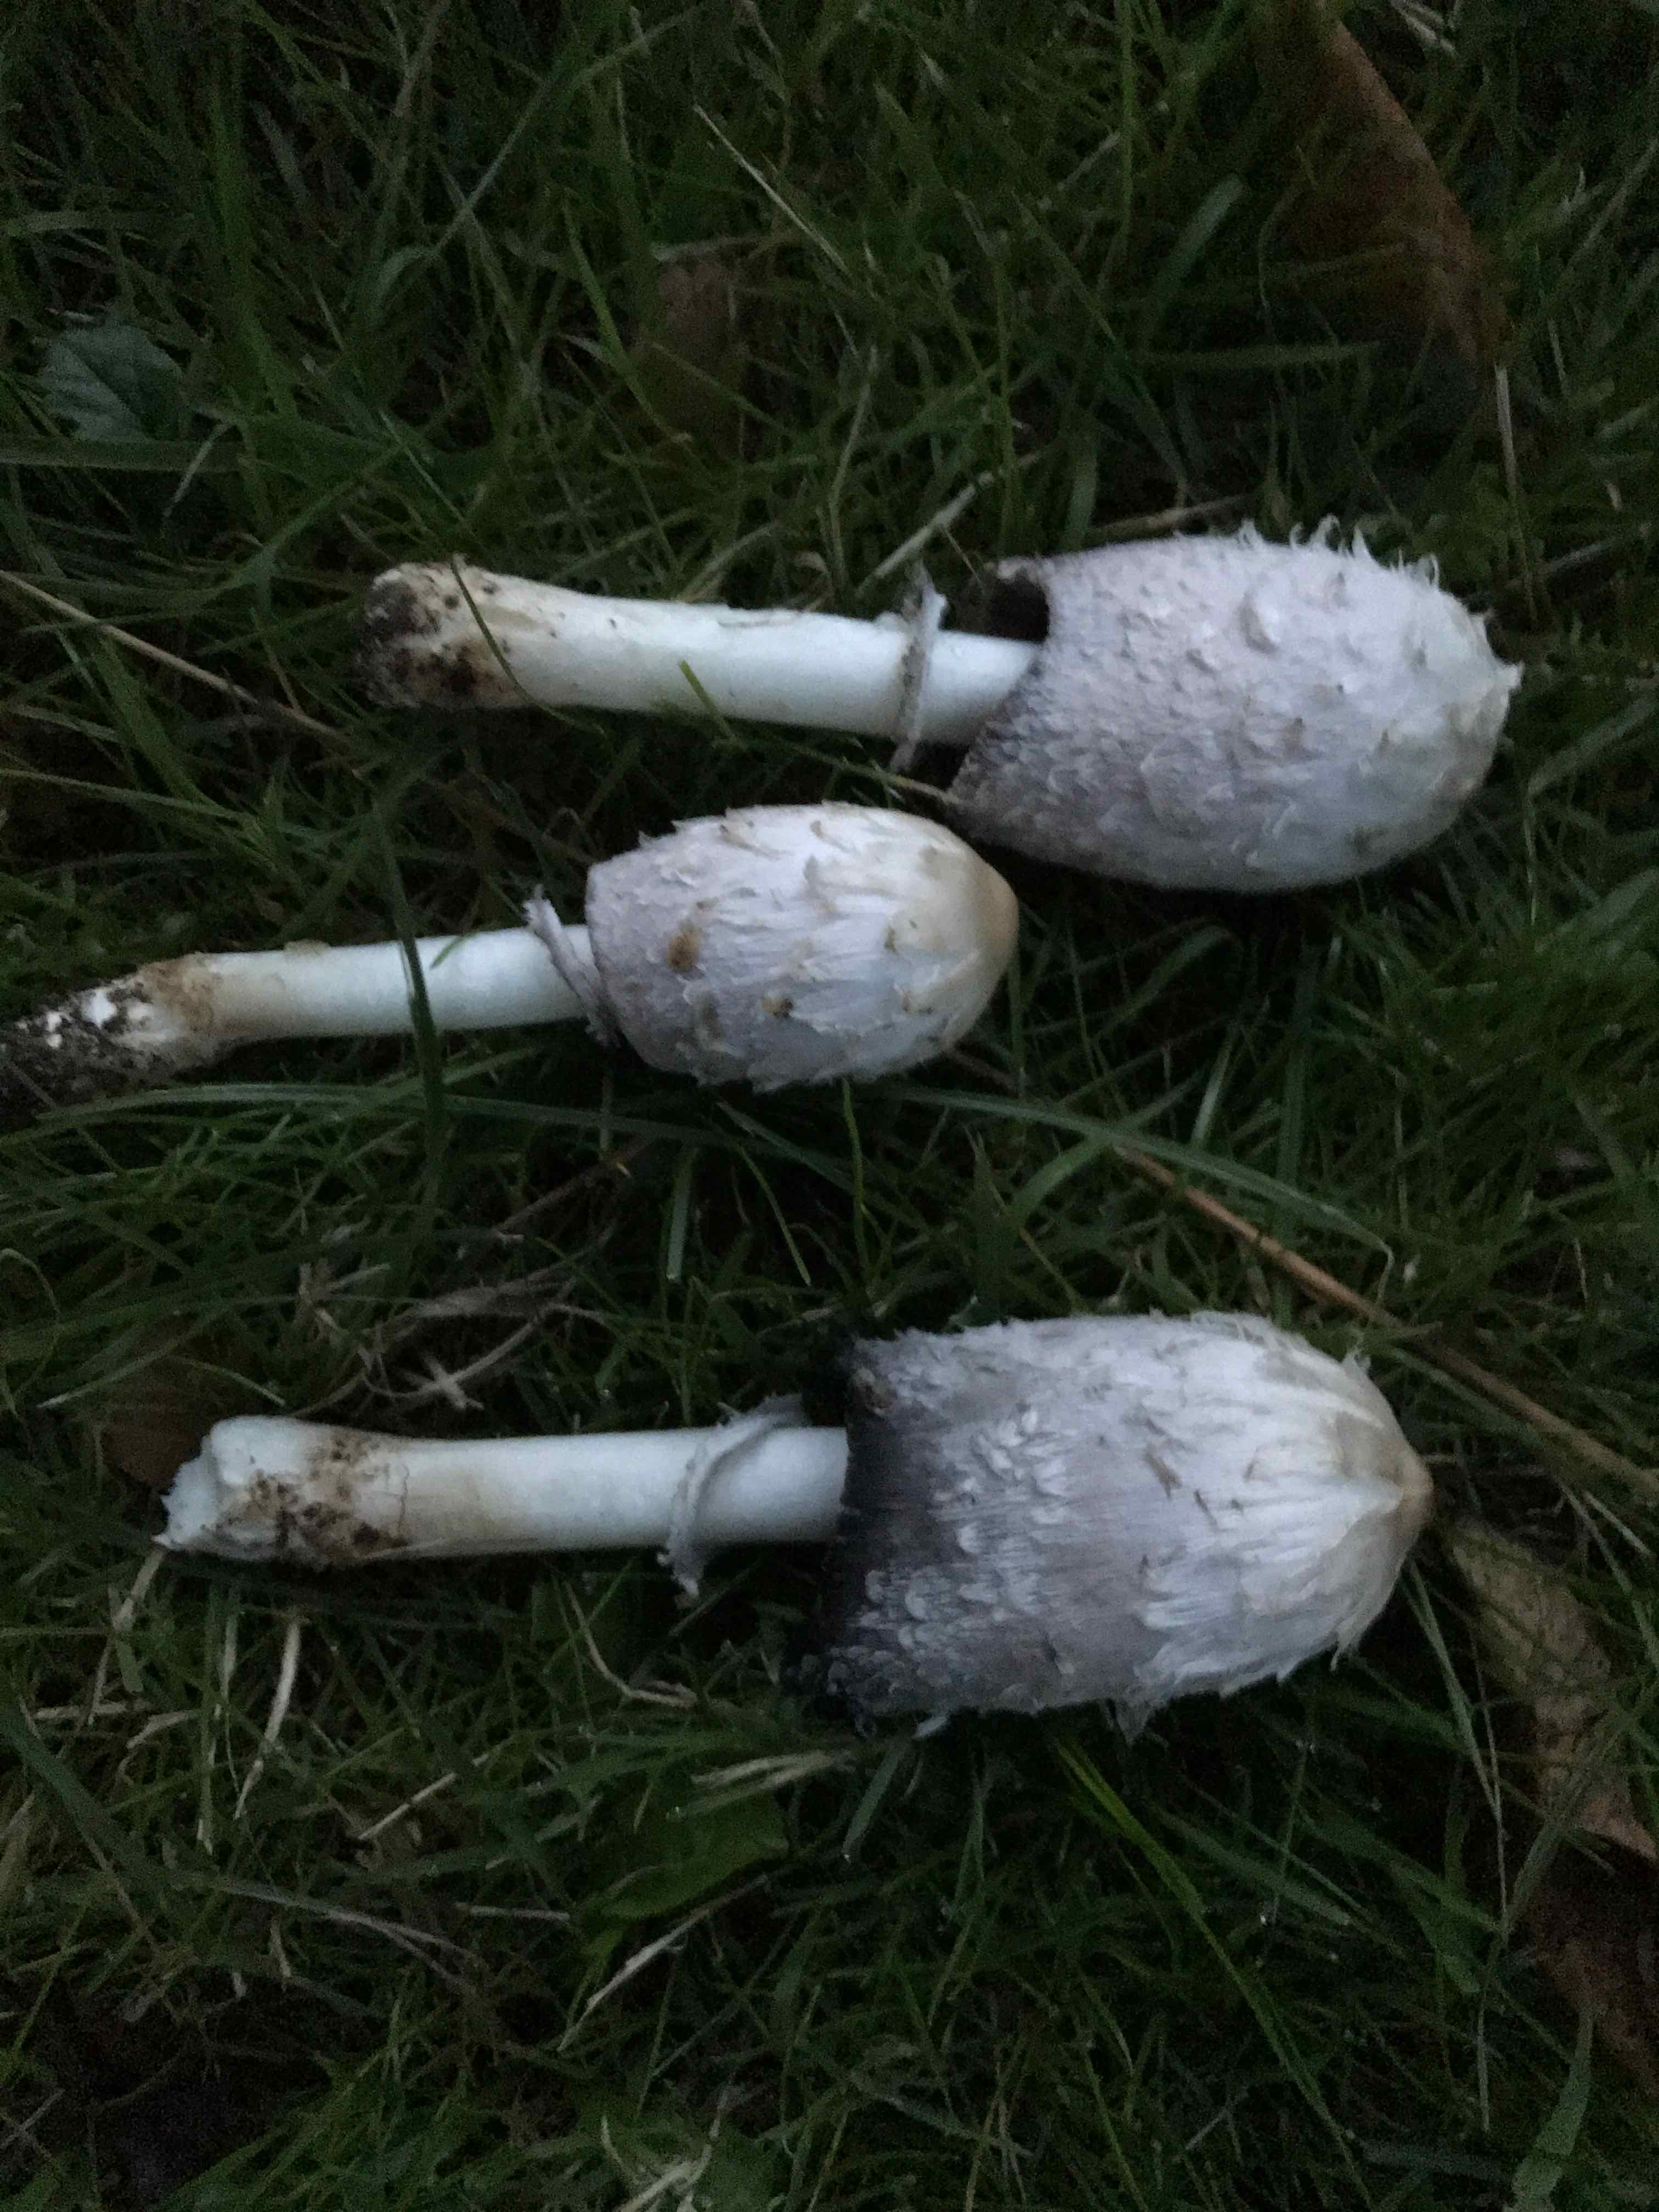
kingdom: Fungi
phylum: Basidiomycota
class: Agaricomycetes
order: Agaricales
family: Agaricaceae
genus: Coprinus
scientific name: Coprinus comatus
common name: stor parykhat
